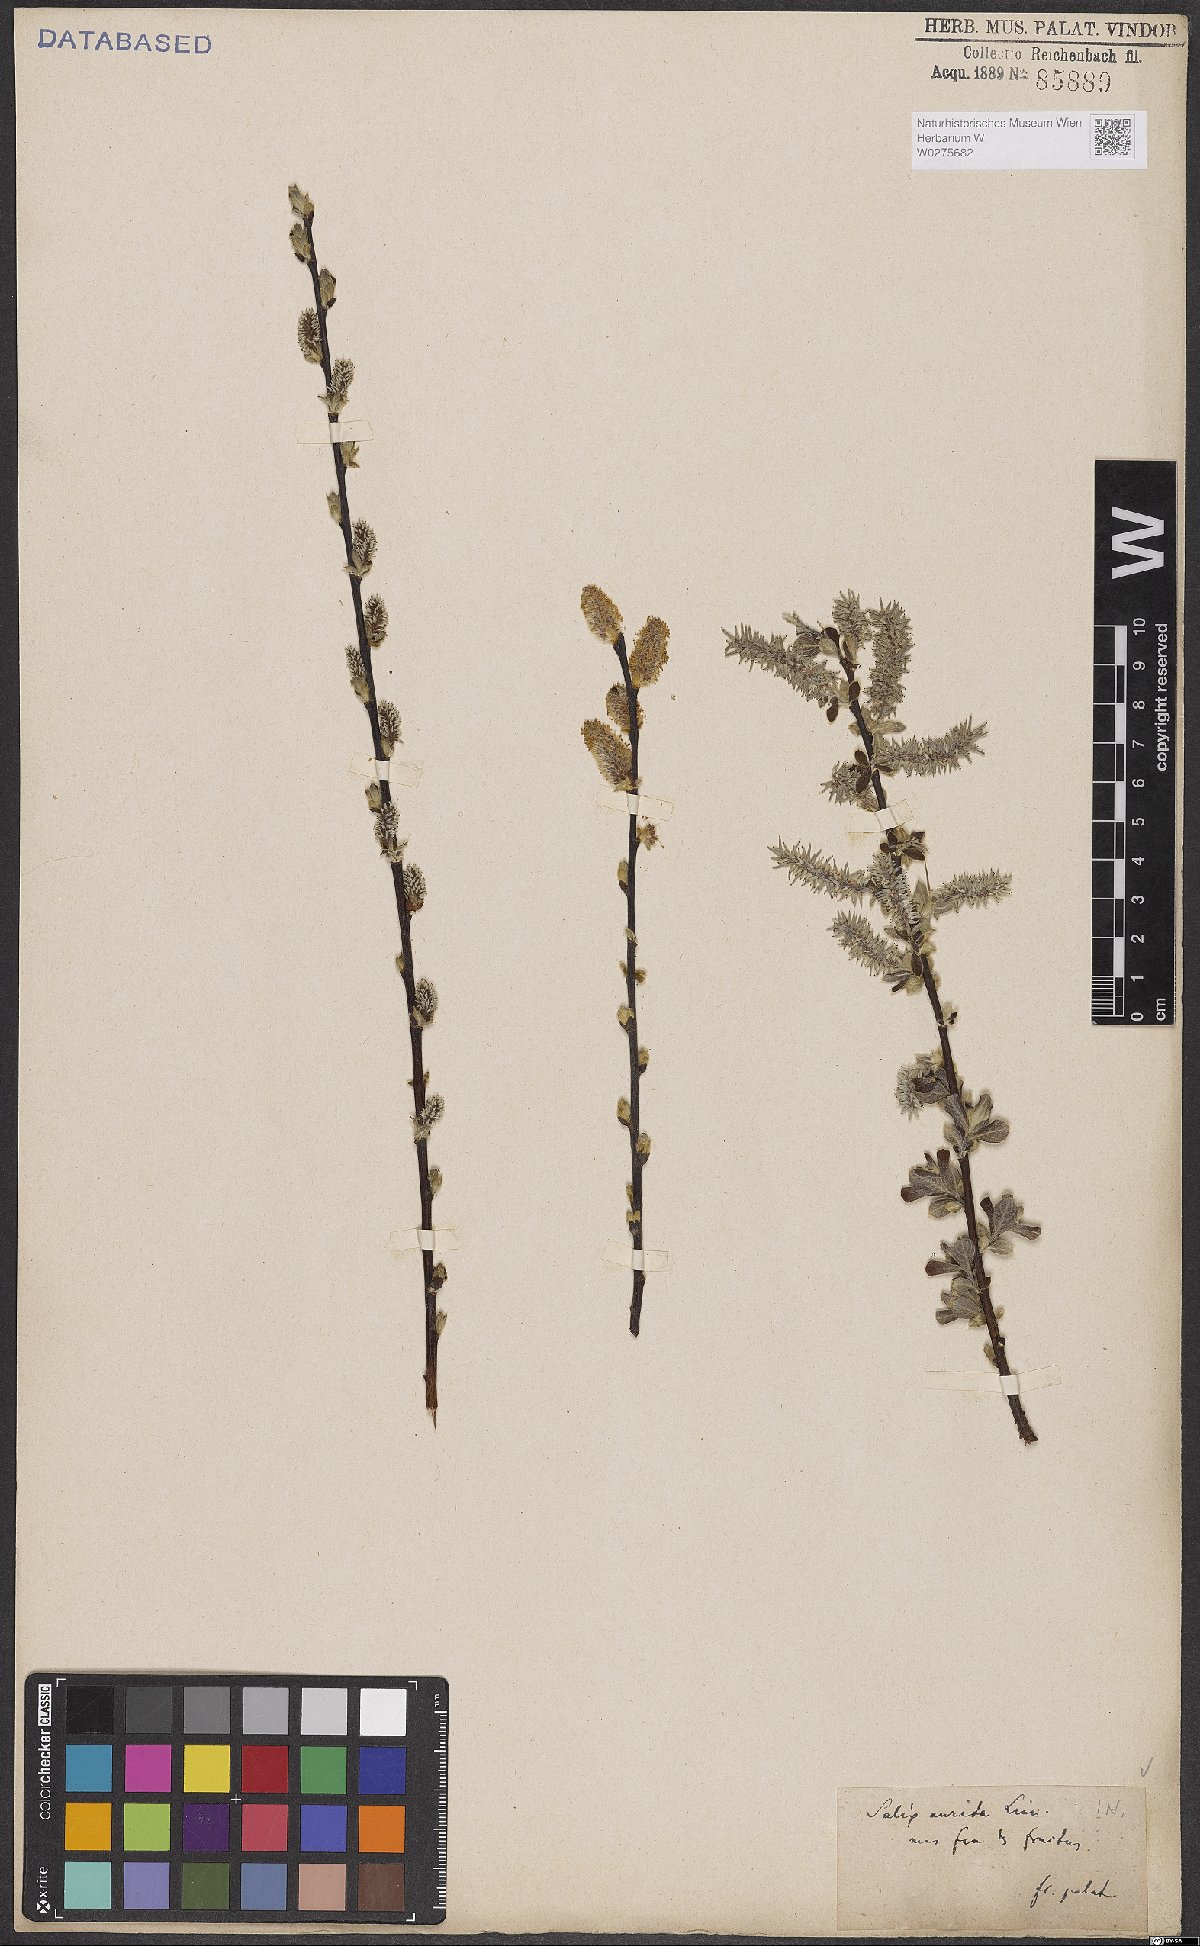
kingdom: Plantae
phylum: Tracheophyta
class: Magnoliopsida
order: Malpighiales
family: Salicaceae
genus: Salix
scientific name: Salix aurita
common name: Eared willow
